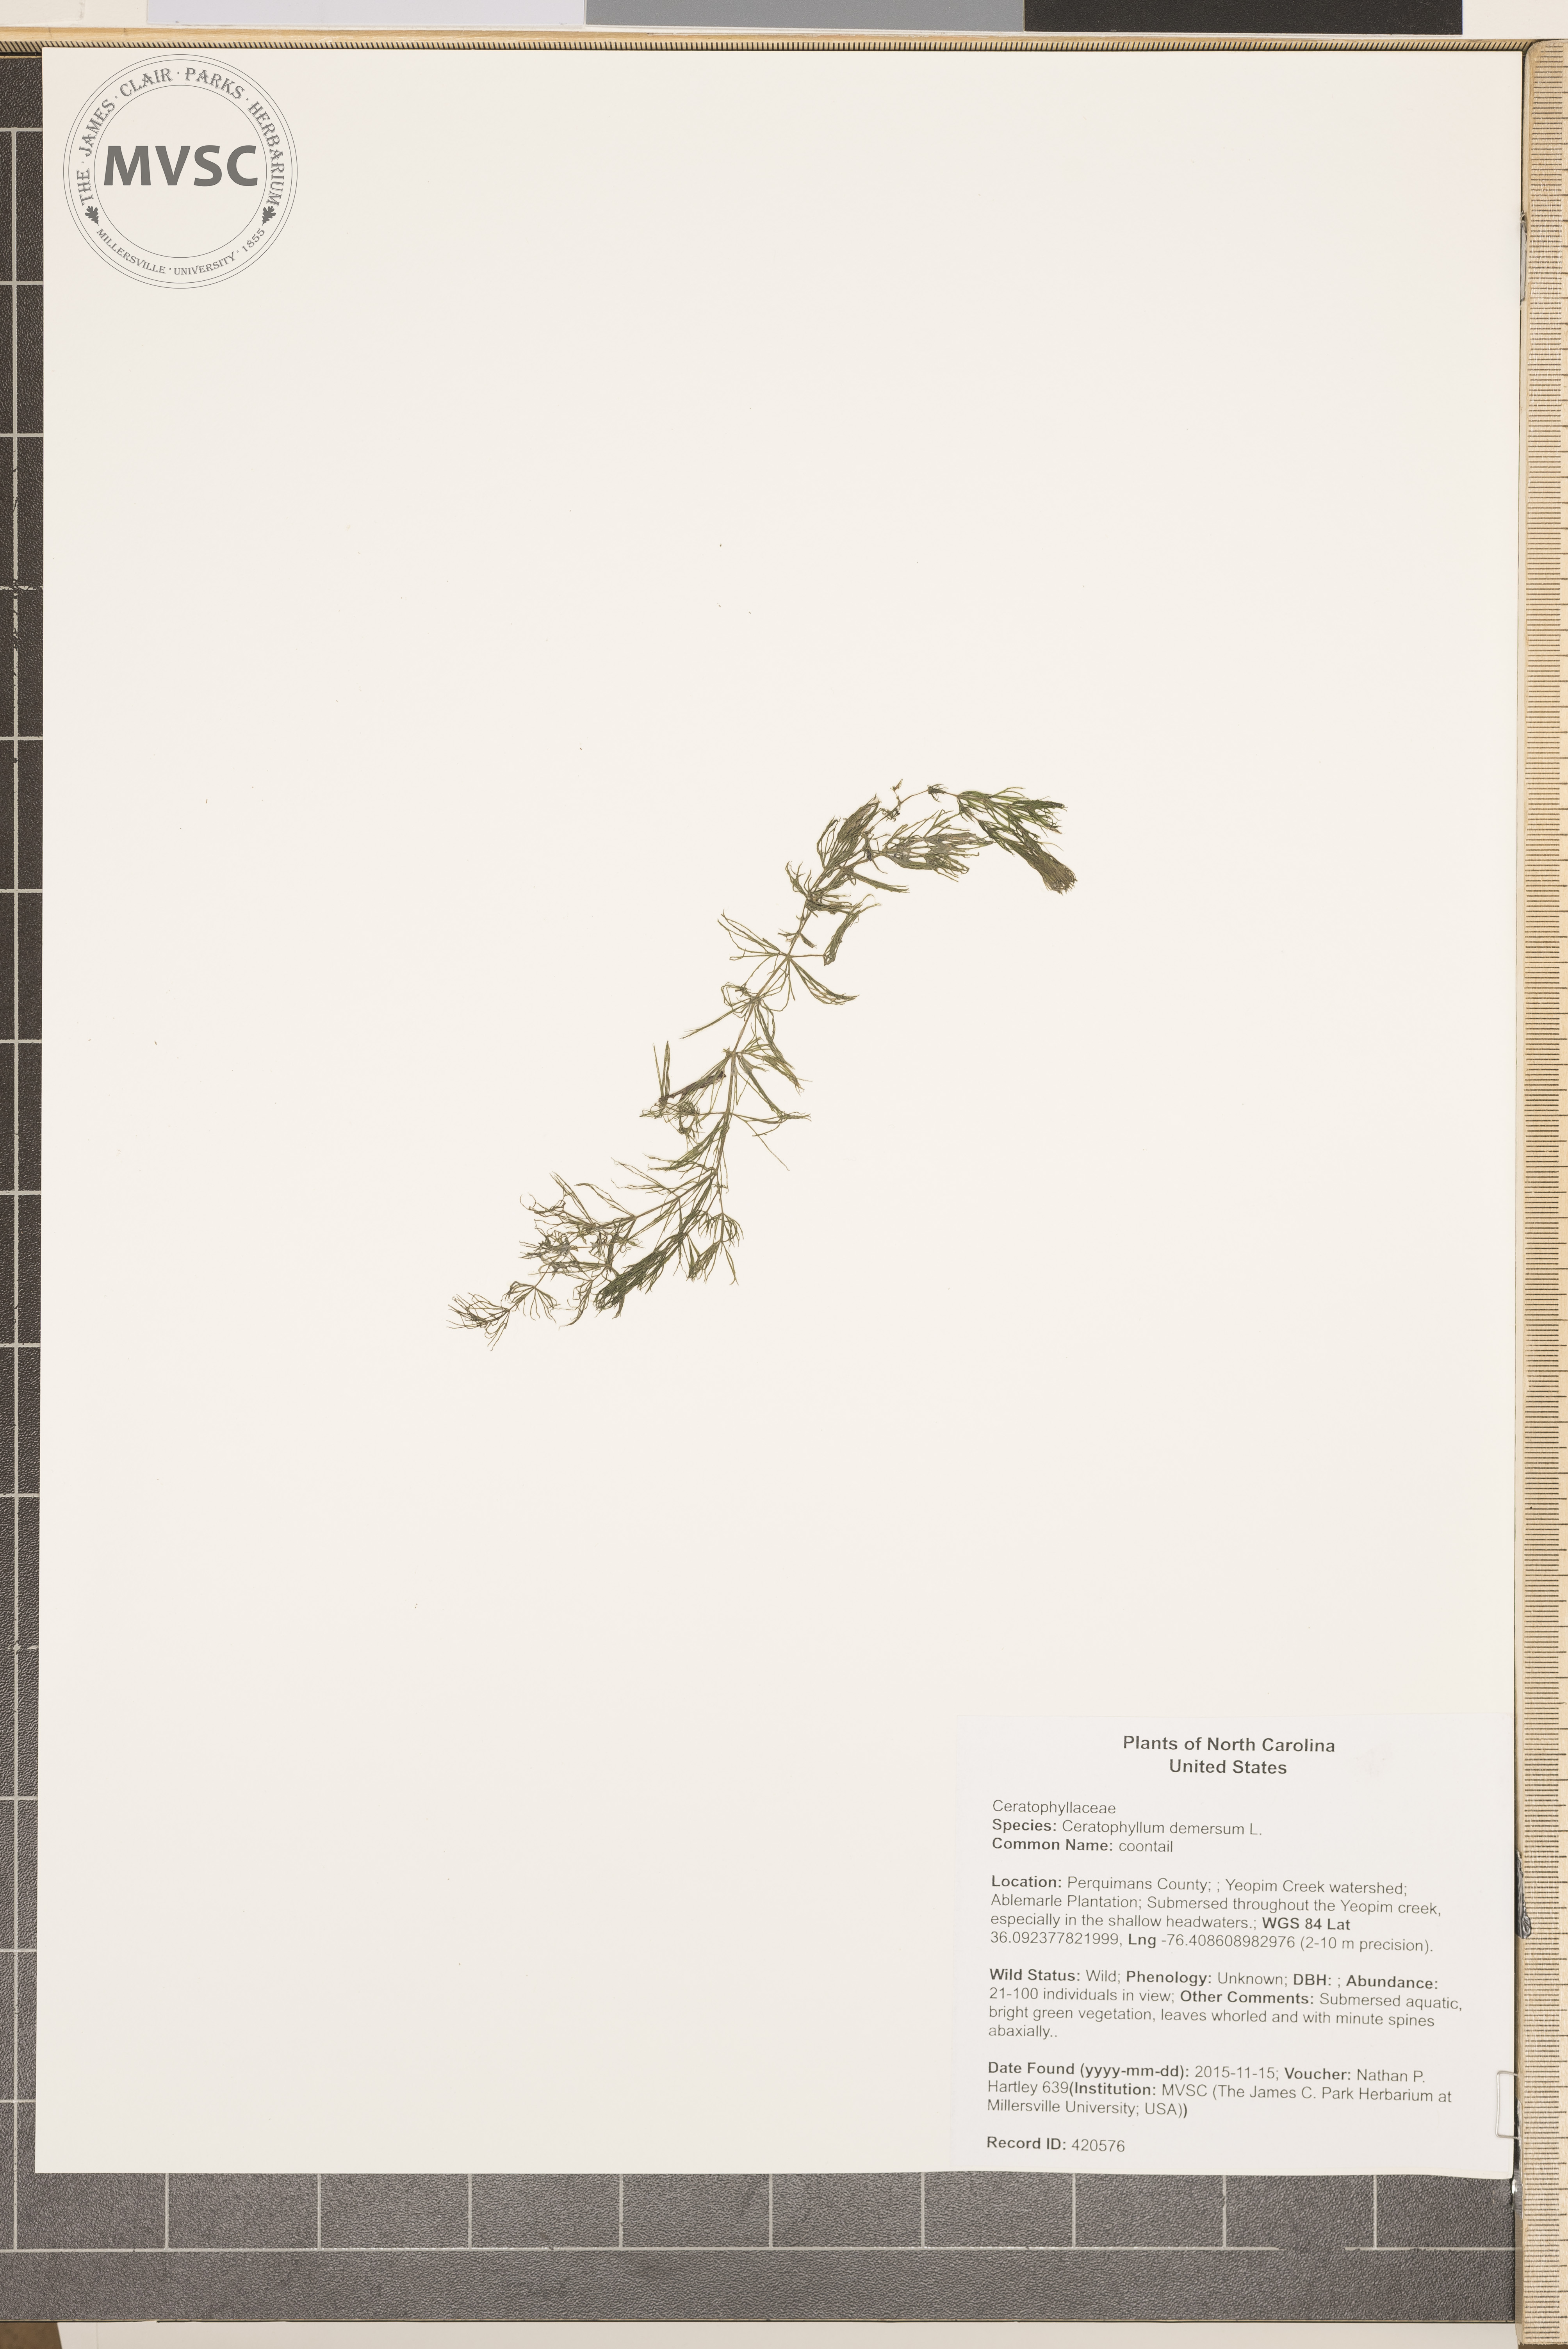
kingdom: Plantae
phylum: Tracheophyta
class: Magnoliopsida
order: Ceratophyllales
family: Ceratophyllaceae
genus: Ceratophyllum
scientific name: Ceratophyllum demersum
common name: coontail
